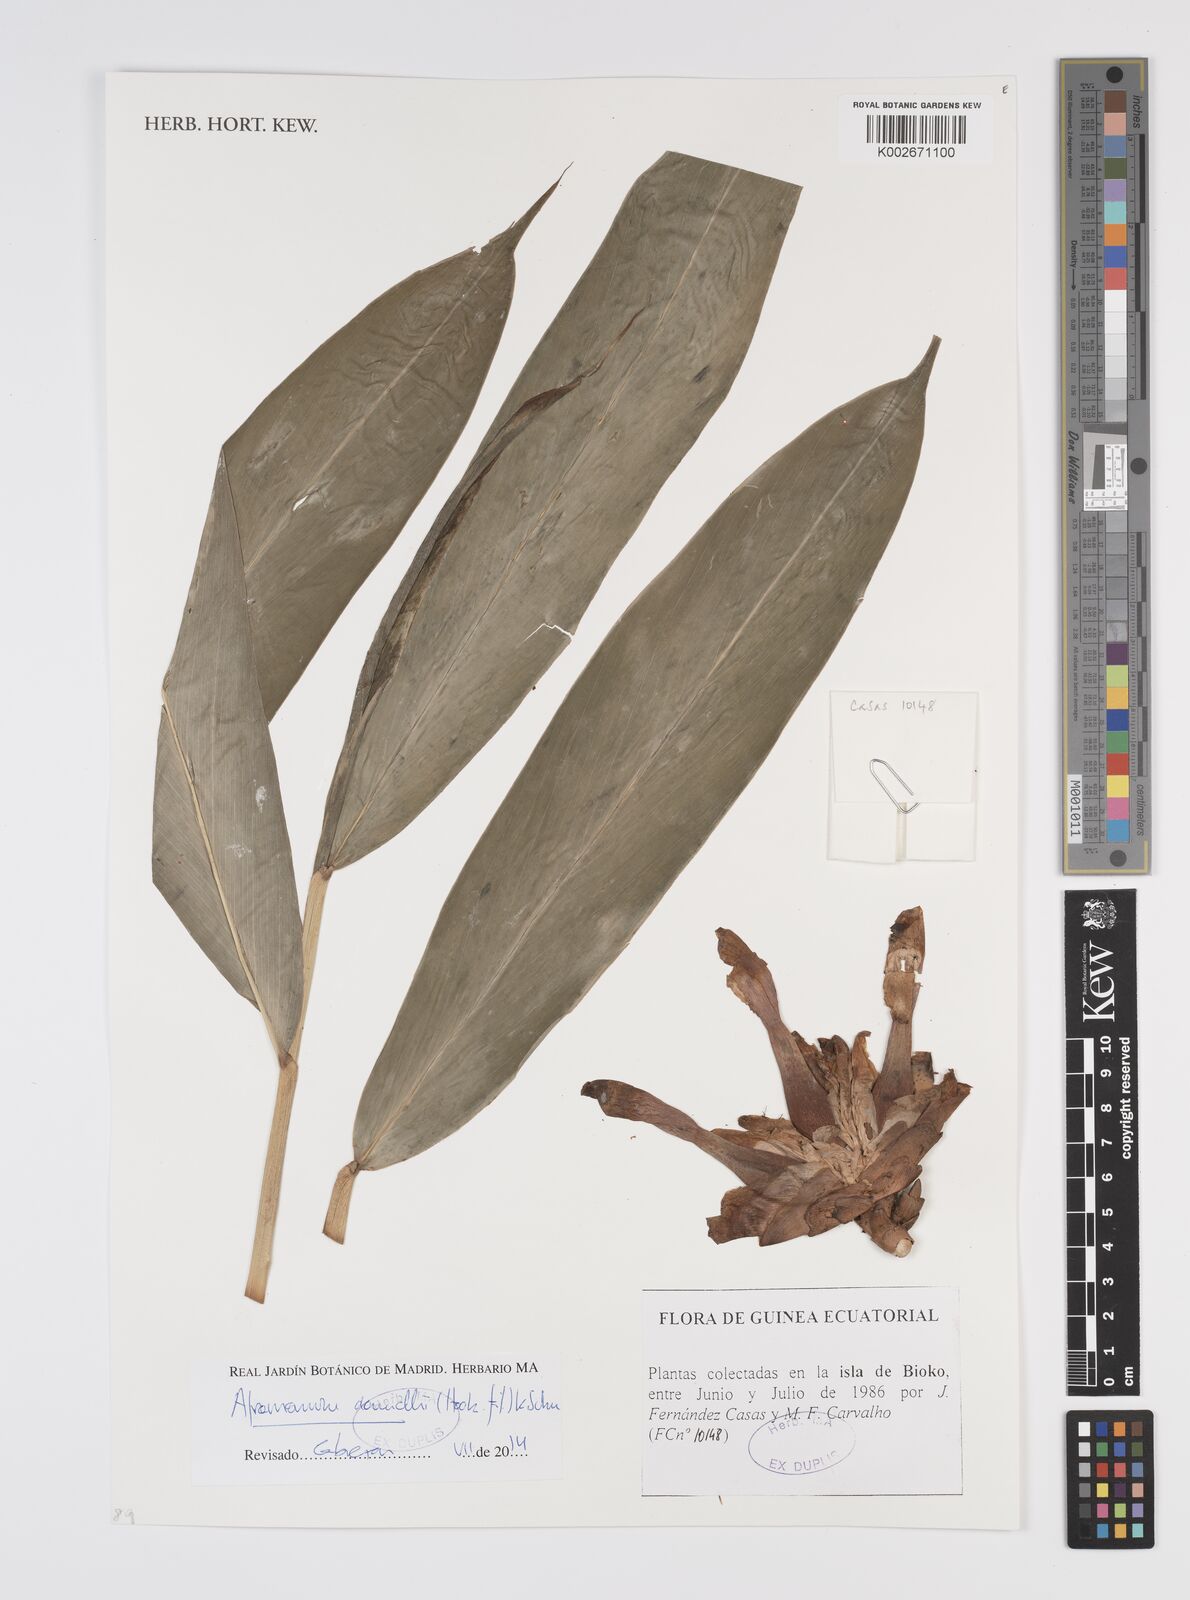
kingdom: Plantae
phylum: Tracheophyta
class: Liliopsida
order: Zingiberales
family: Zingiberaceae
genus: Aframomum
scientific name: Aframomum daniellii
